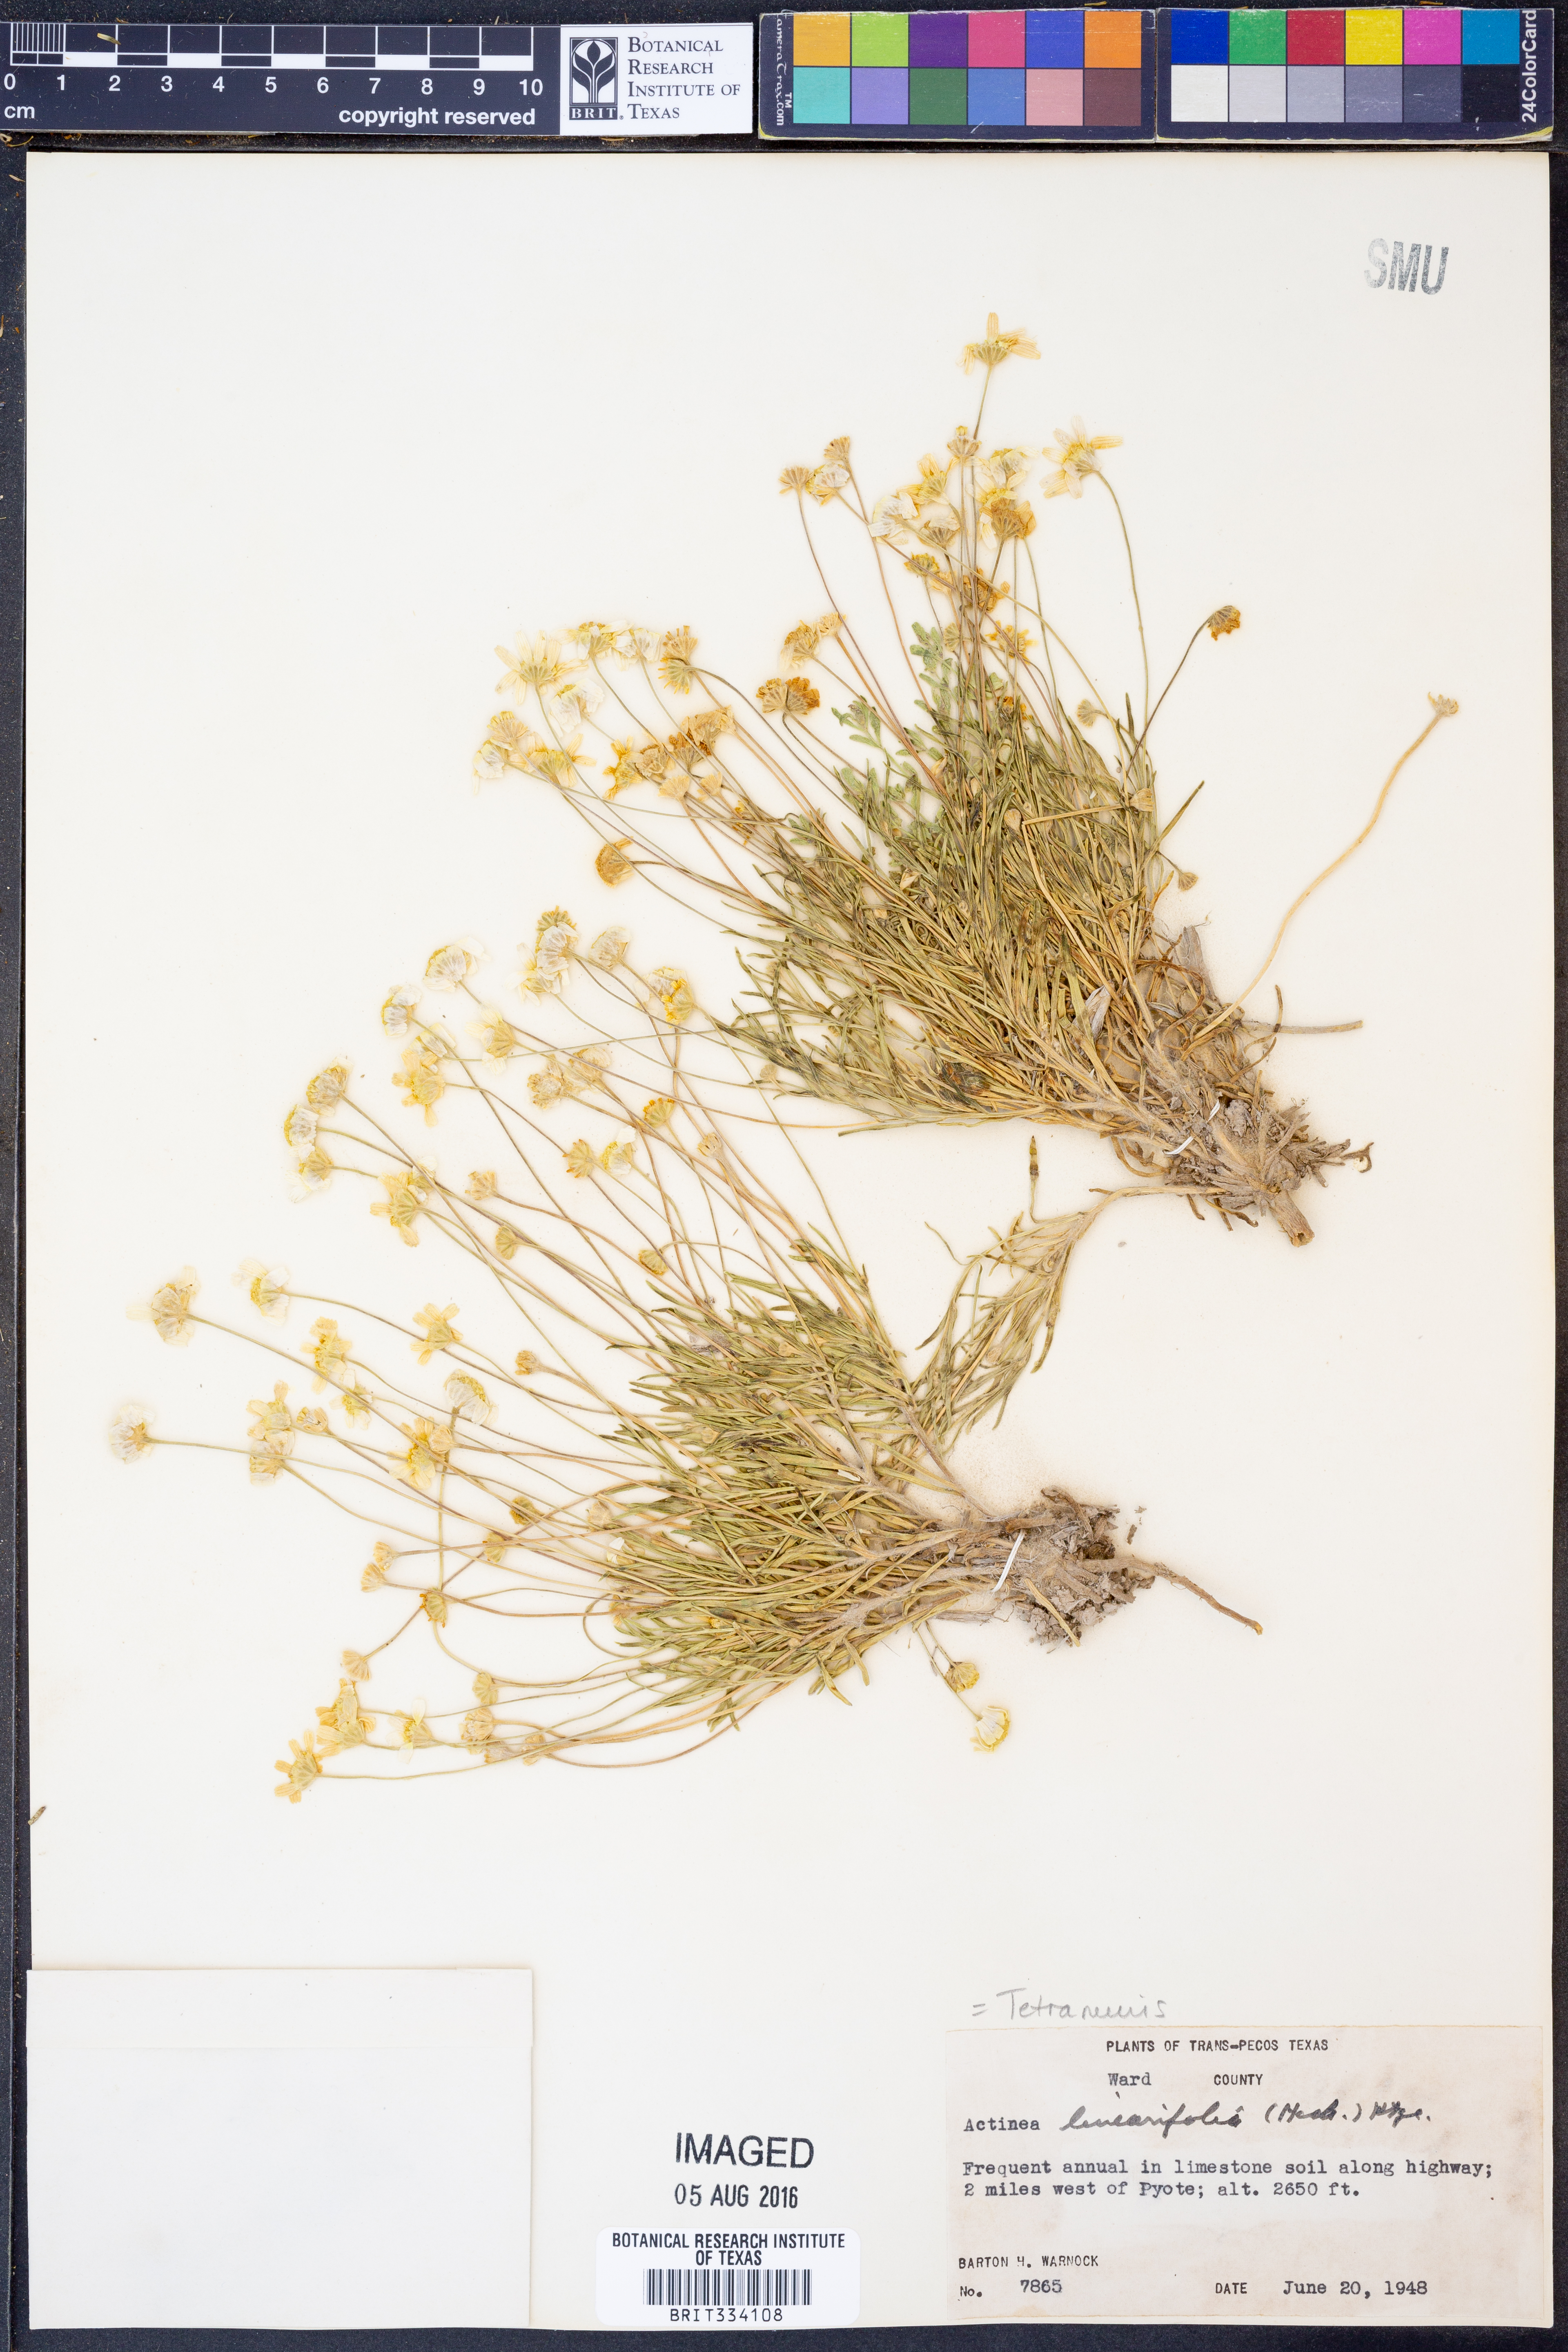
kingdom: Plantae
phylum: Tracheophyta
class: Magnoliopsida
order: Asterales
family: Asteraceae
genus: Tetraneuris
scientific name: Tetraneuris linearifolia
